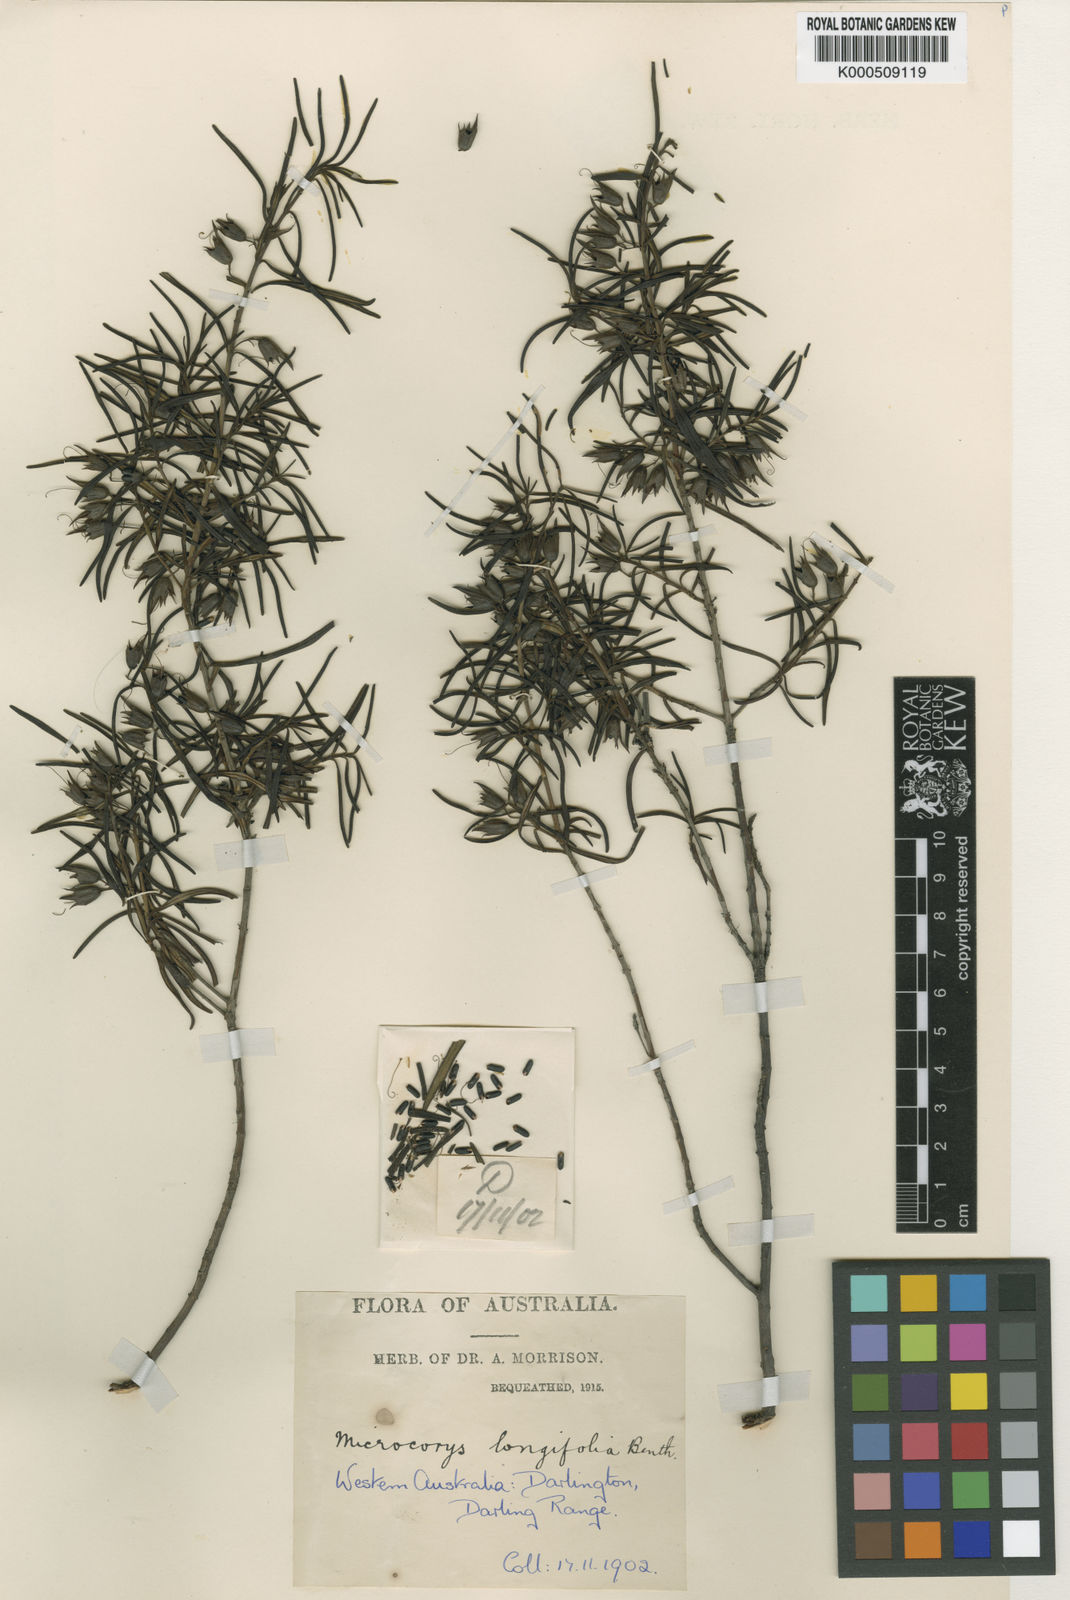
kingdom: Plantae
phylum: Tracheophyta
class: Magnoliopsida
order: Lamiales
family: Lamiaceae
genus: Microcorys
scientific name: Microcorys longifolia
